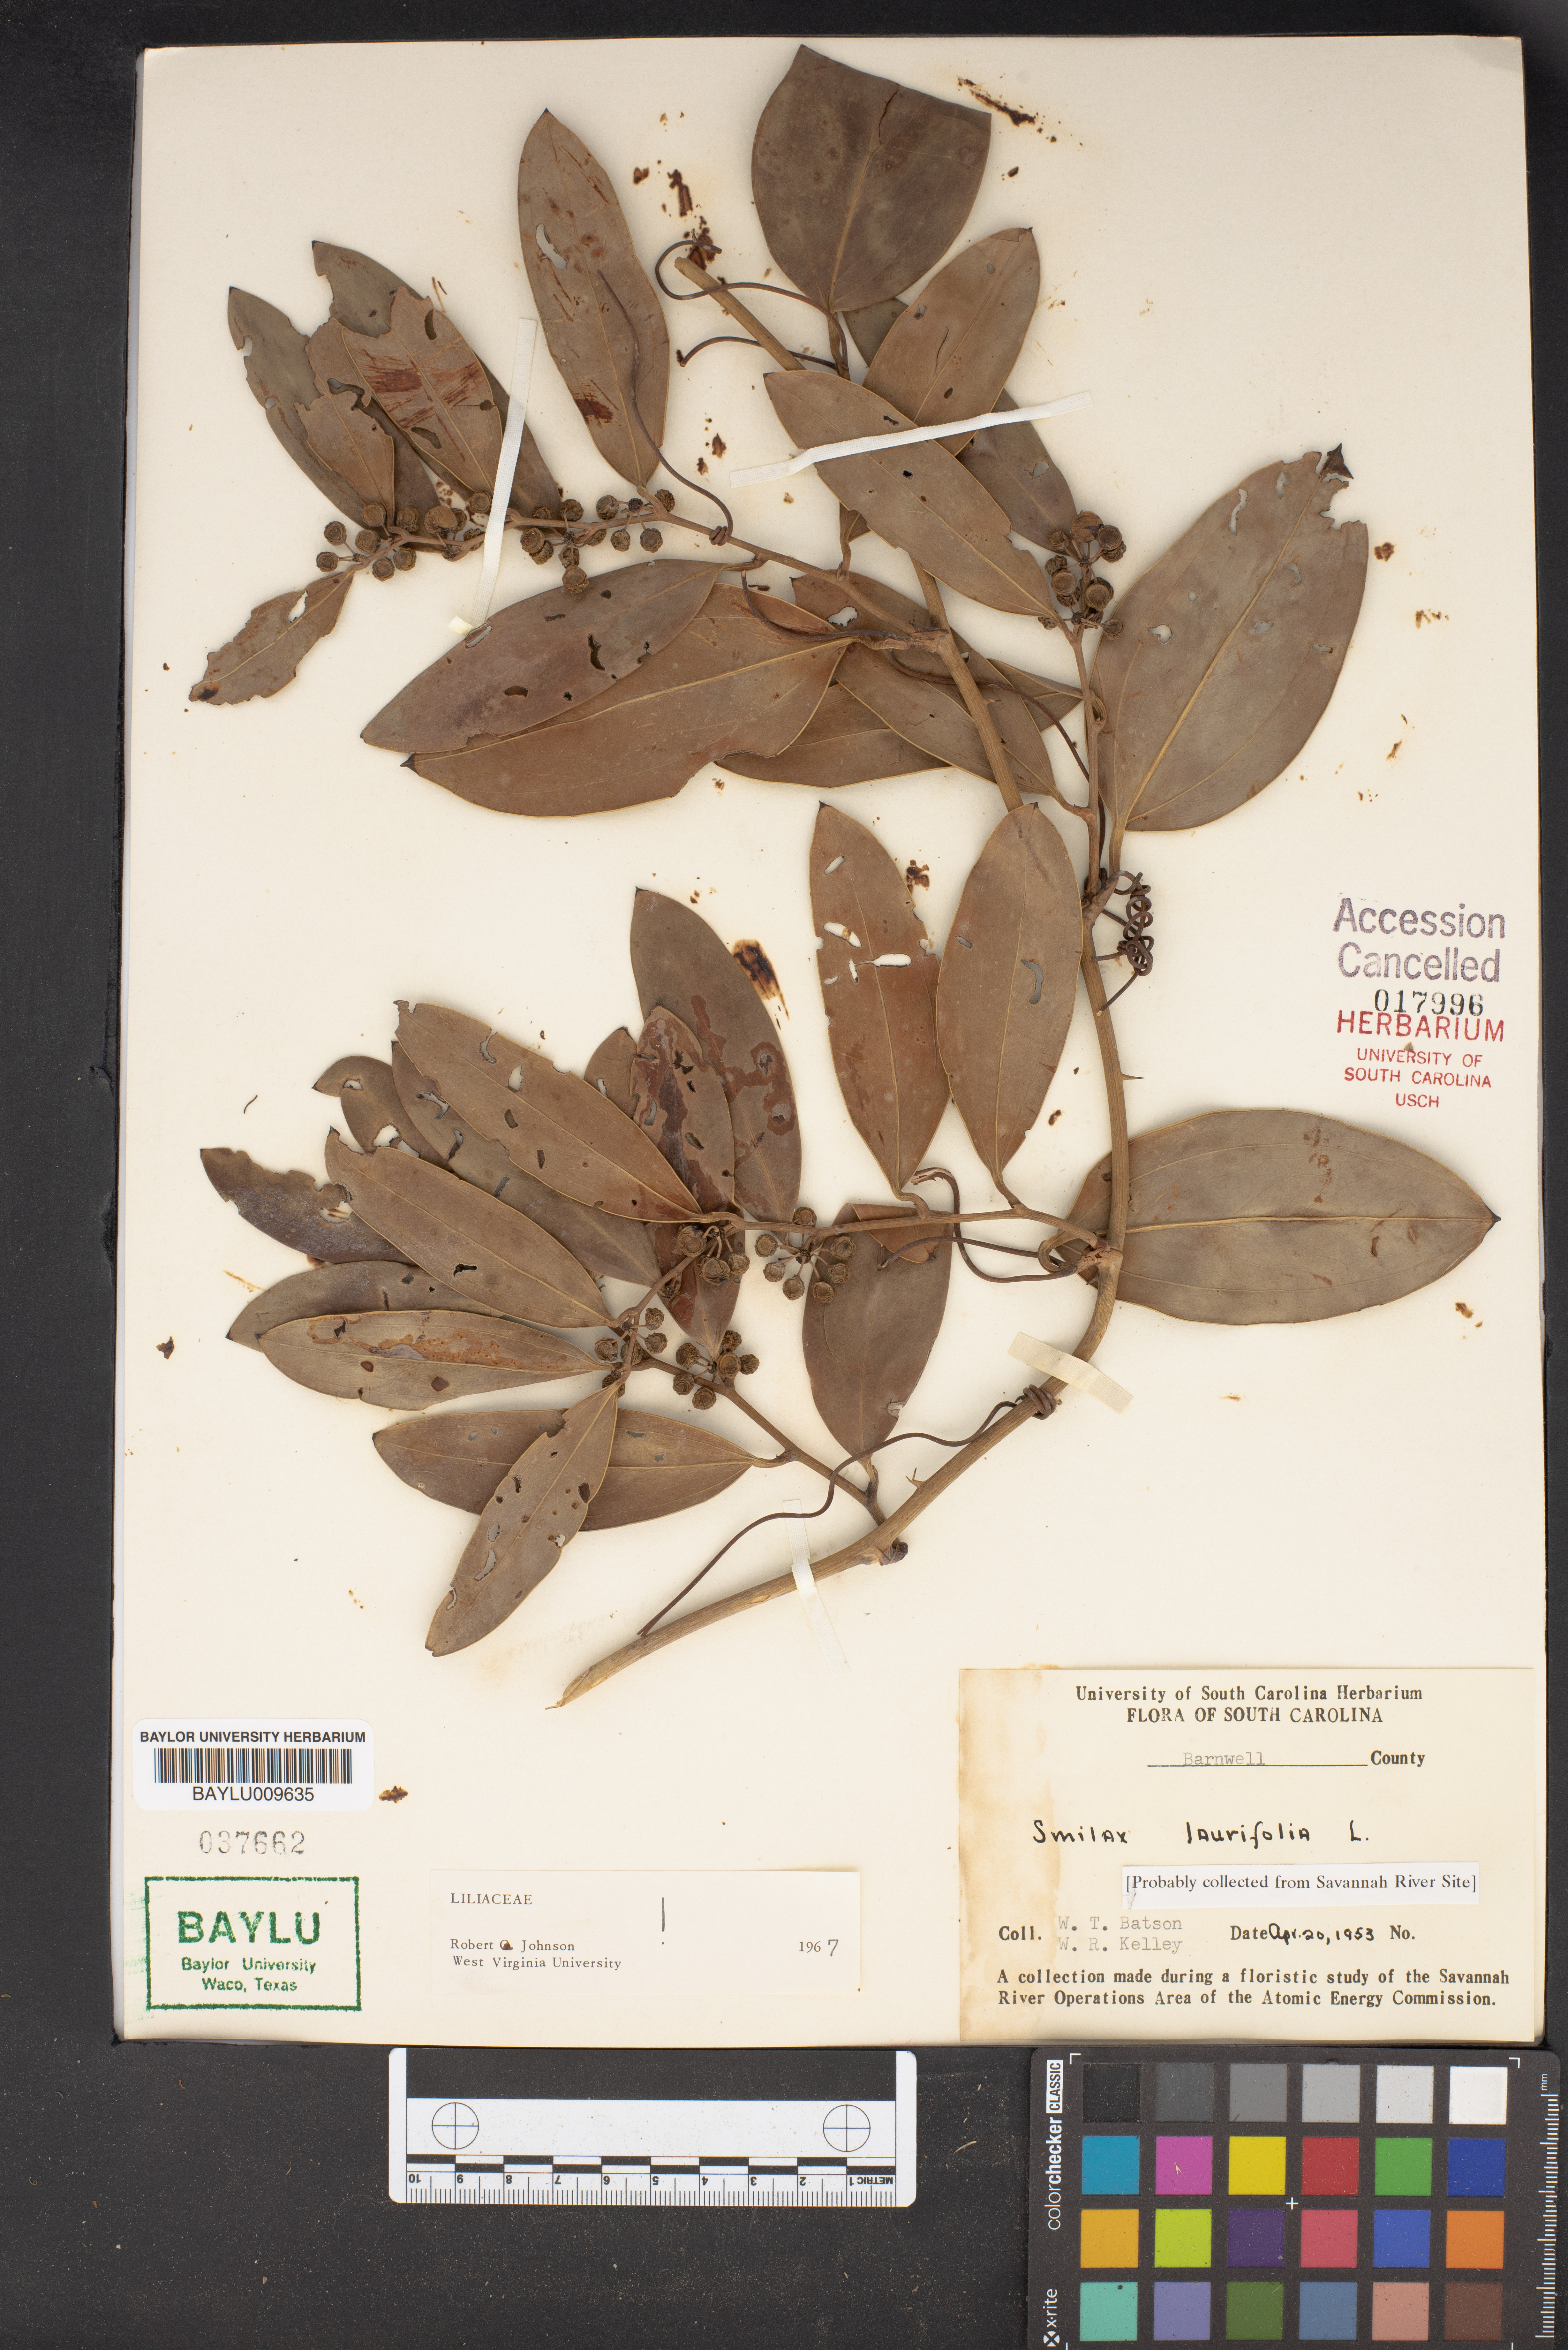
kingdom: Plantae
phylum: Tracheophyta
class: Liliopsida
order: Liliales
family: Smilacaceae
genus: Smilax
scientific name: Smilax laurifolia
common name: Bamboovine
